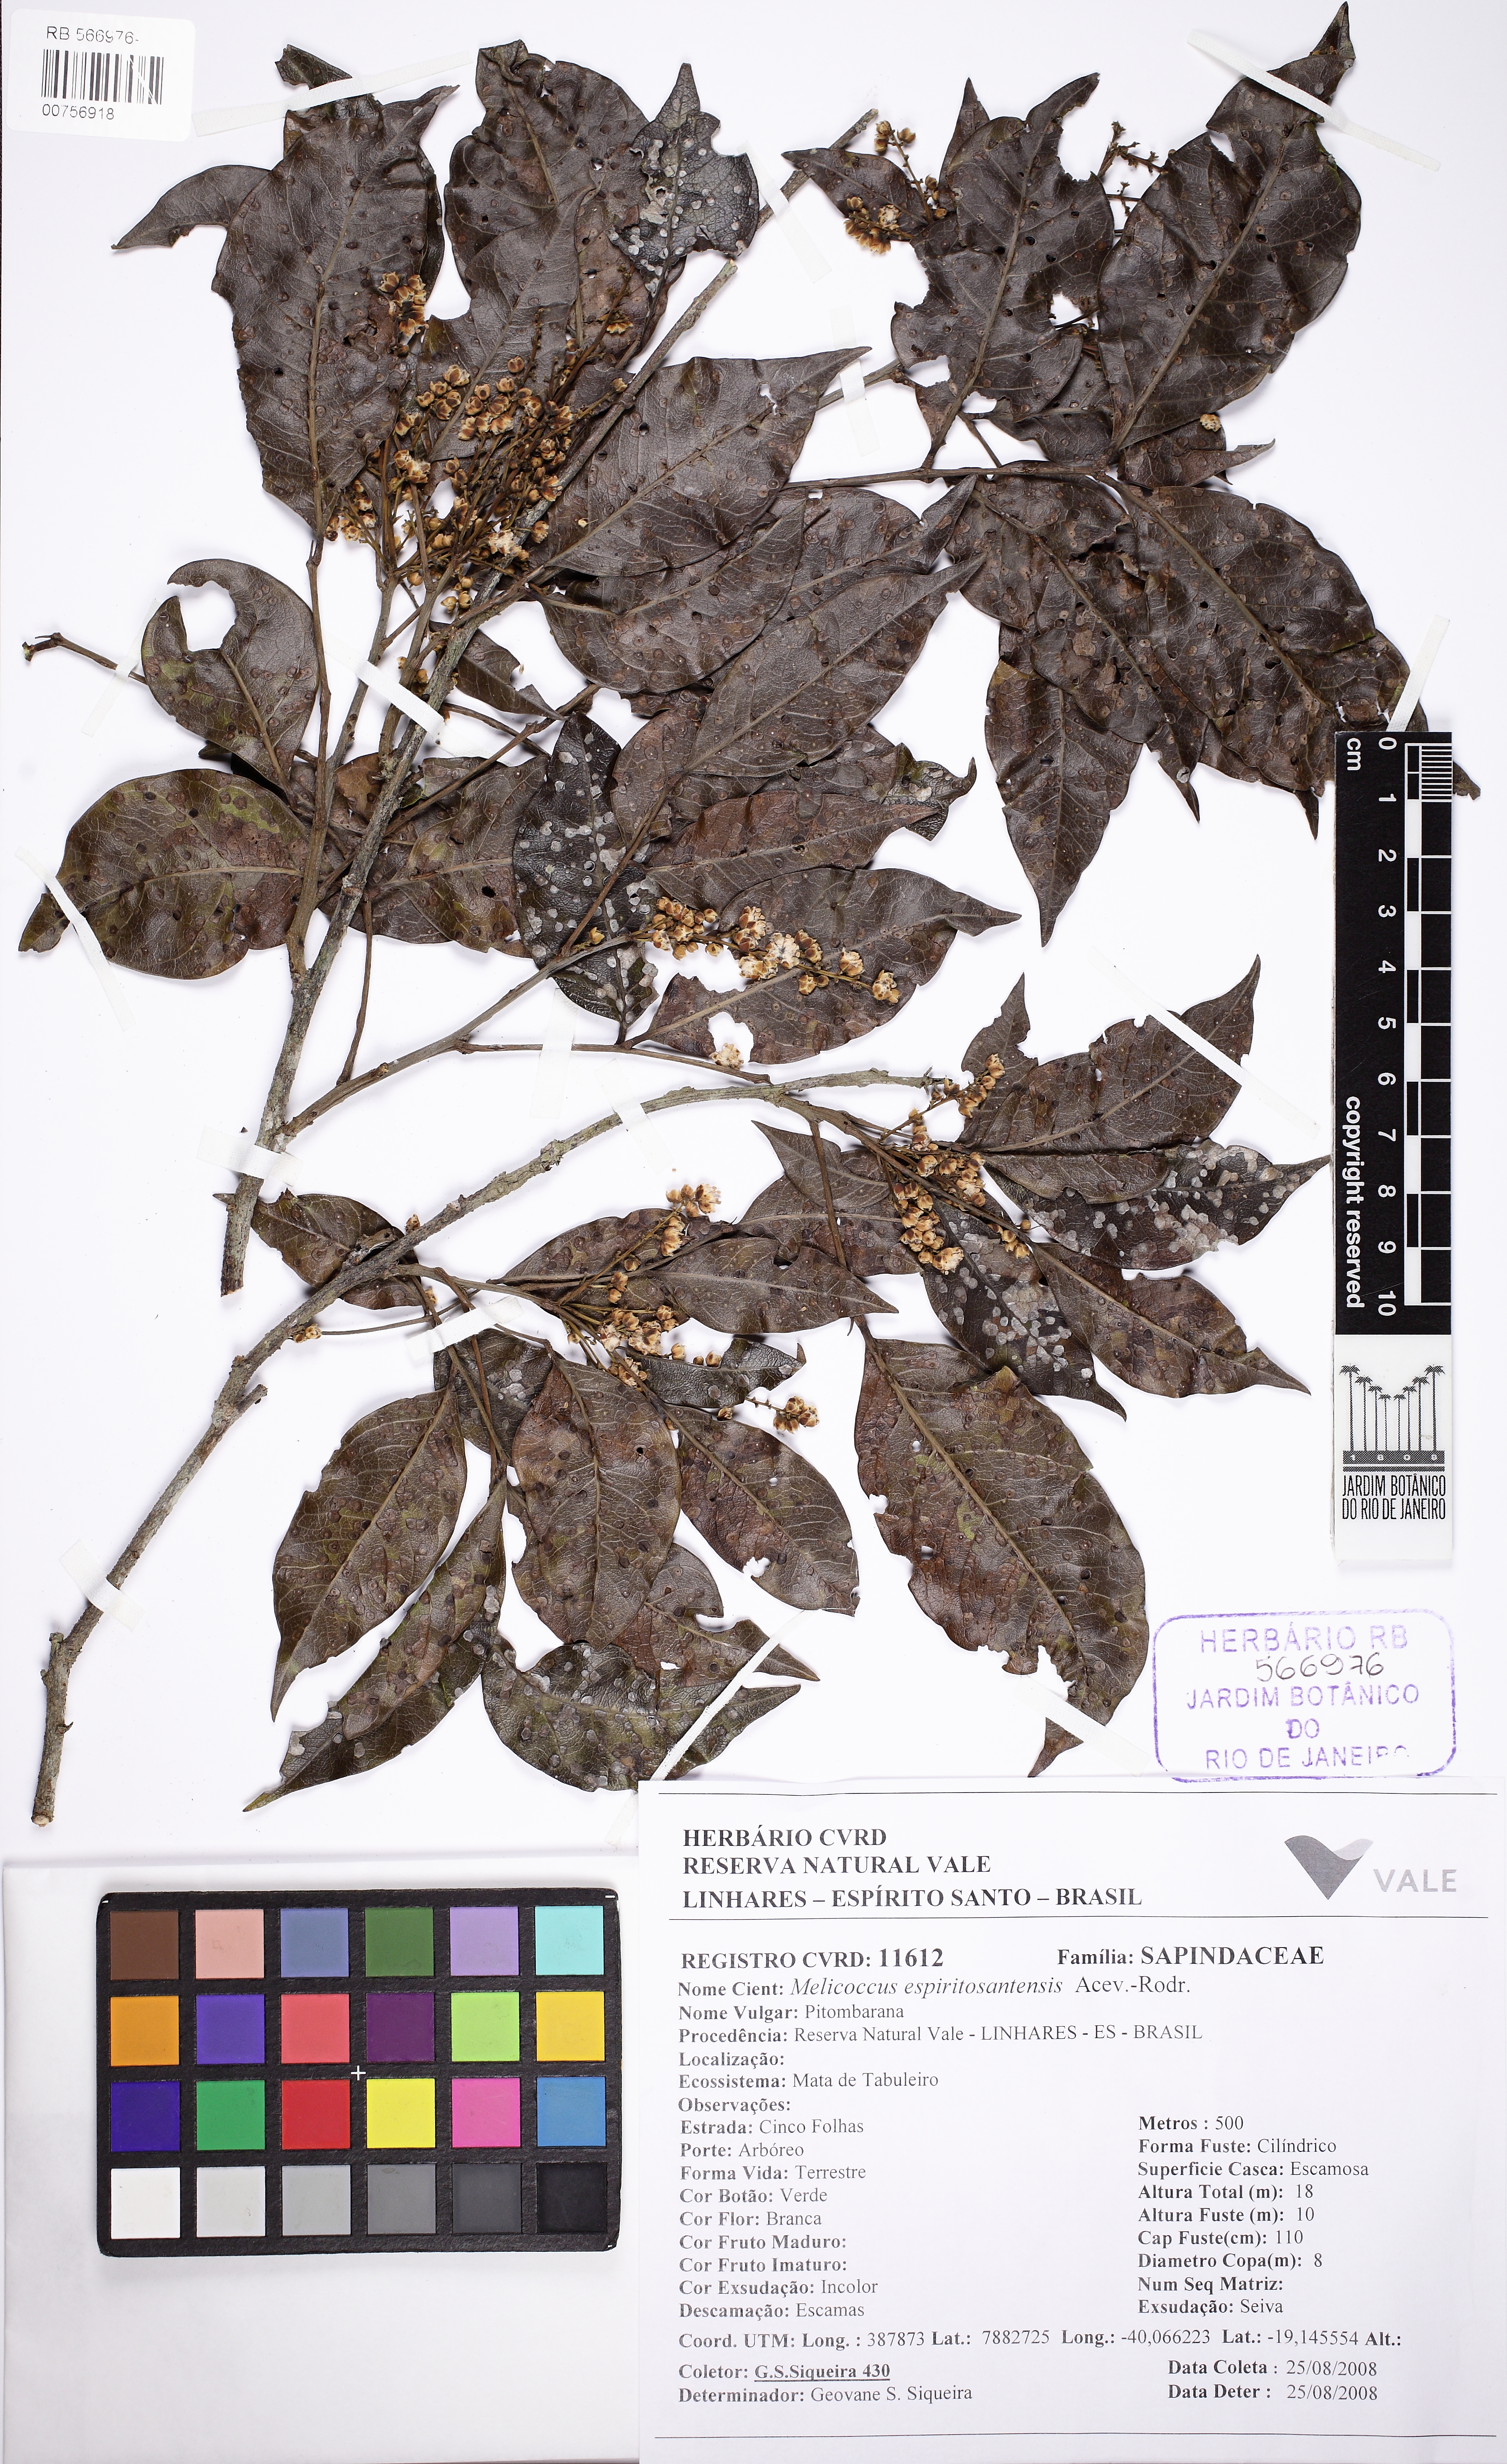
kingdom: Plantae
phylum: Tracheophyta
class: Magnoliopsida
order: Sapindales
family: Sapindaceae
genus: Melicoccus
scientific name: Melicoccus espiritosantensis
